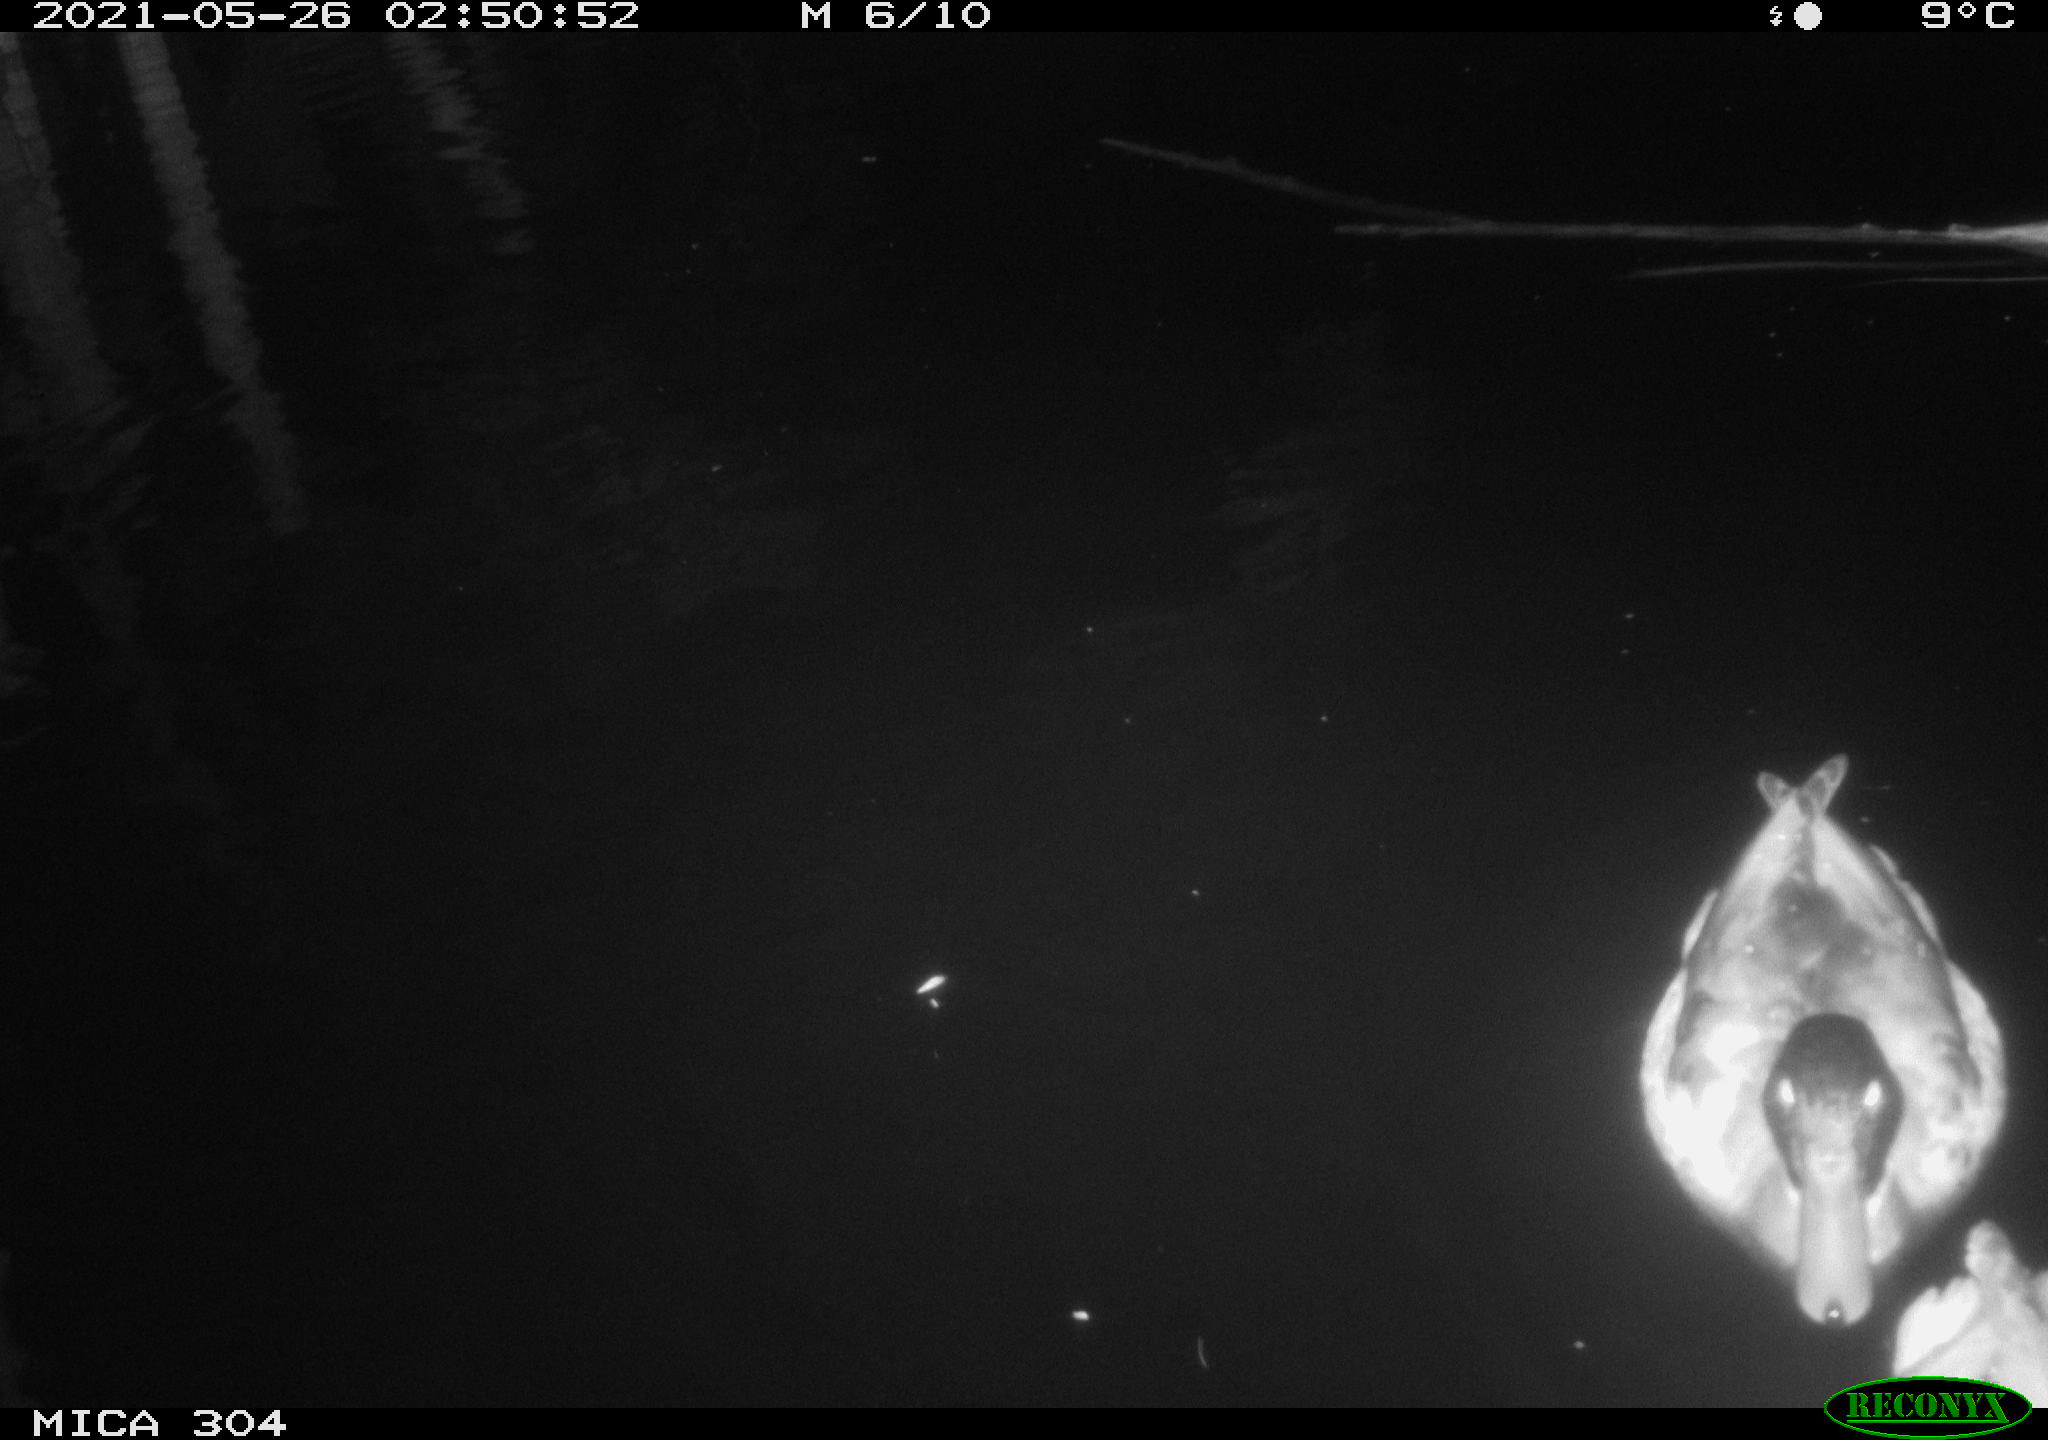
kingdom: Animalia
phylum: Chordata
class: Aves
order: Anseriformes
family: Anatidae
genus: Anas
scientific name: Anas platyrhynchos
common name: Mallard
